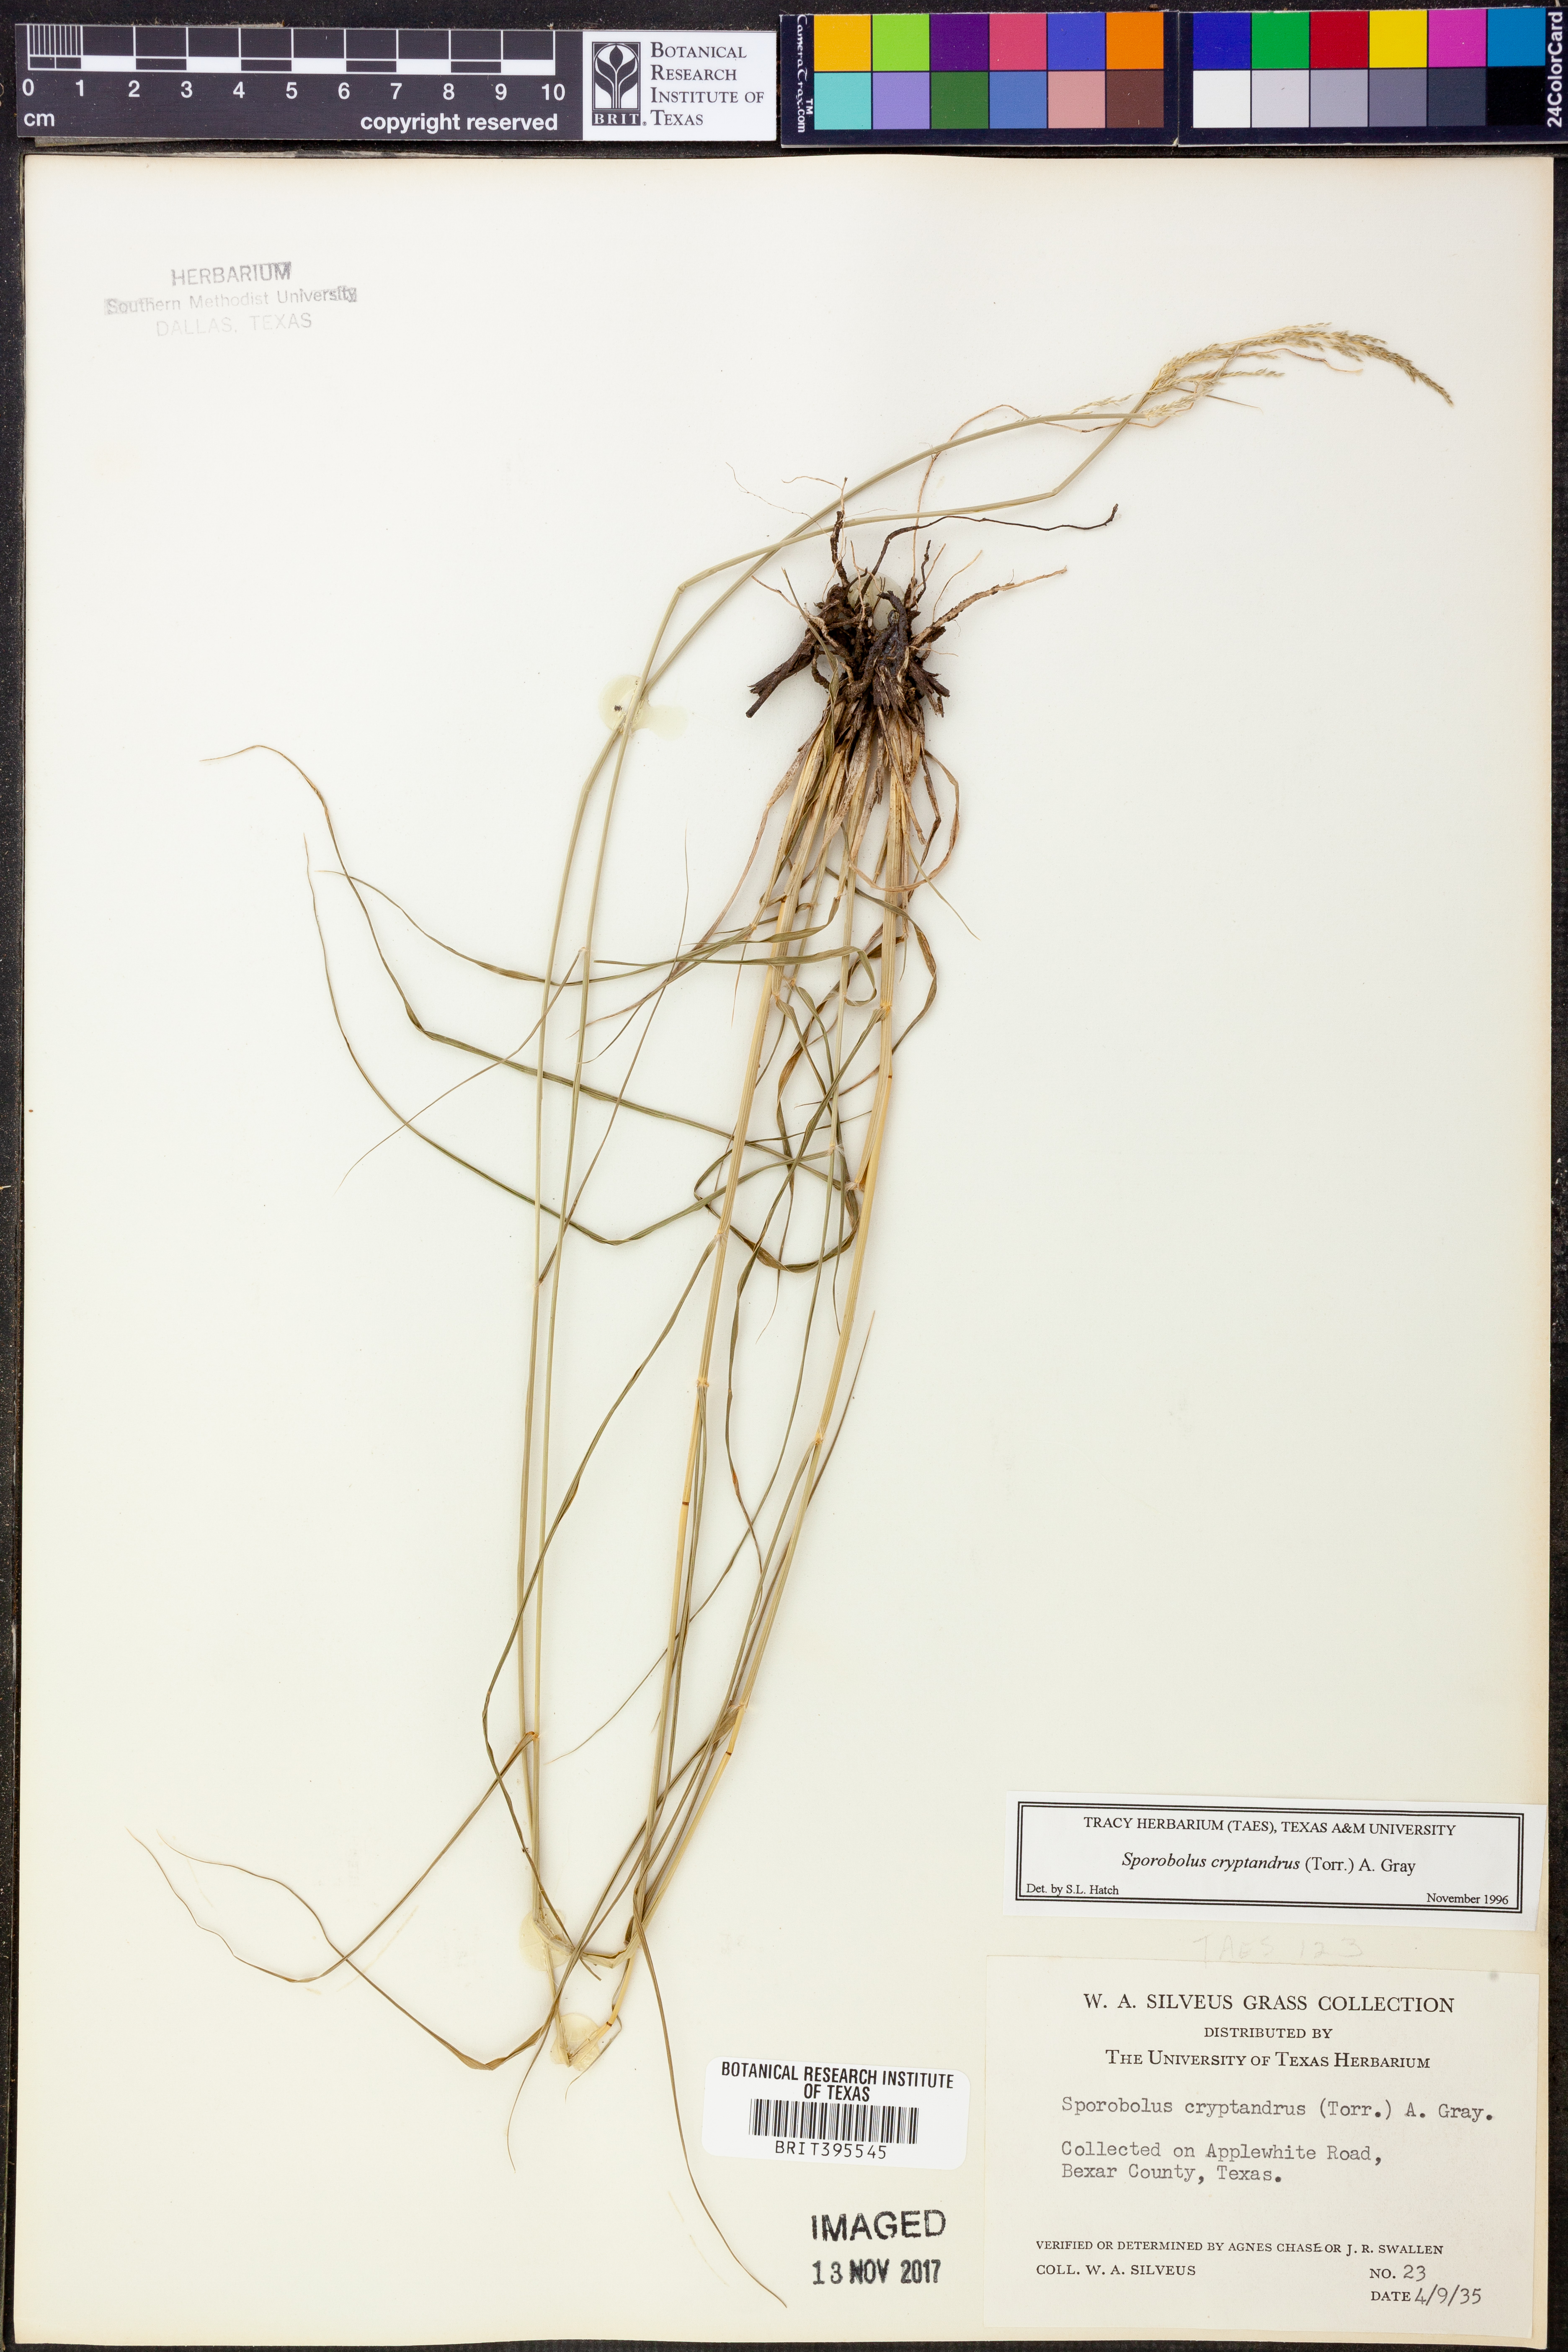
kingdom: Plantae
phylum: Tracheophyta
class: Liliopsida
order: Poales
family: Poaceae
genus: Sporobolus
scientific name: Sporobolus cryptandrus
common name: Sand dropseed
